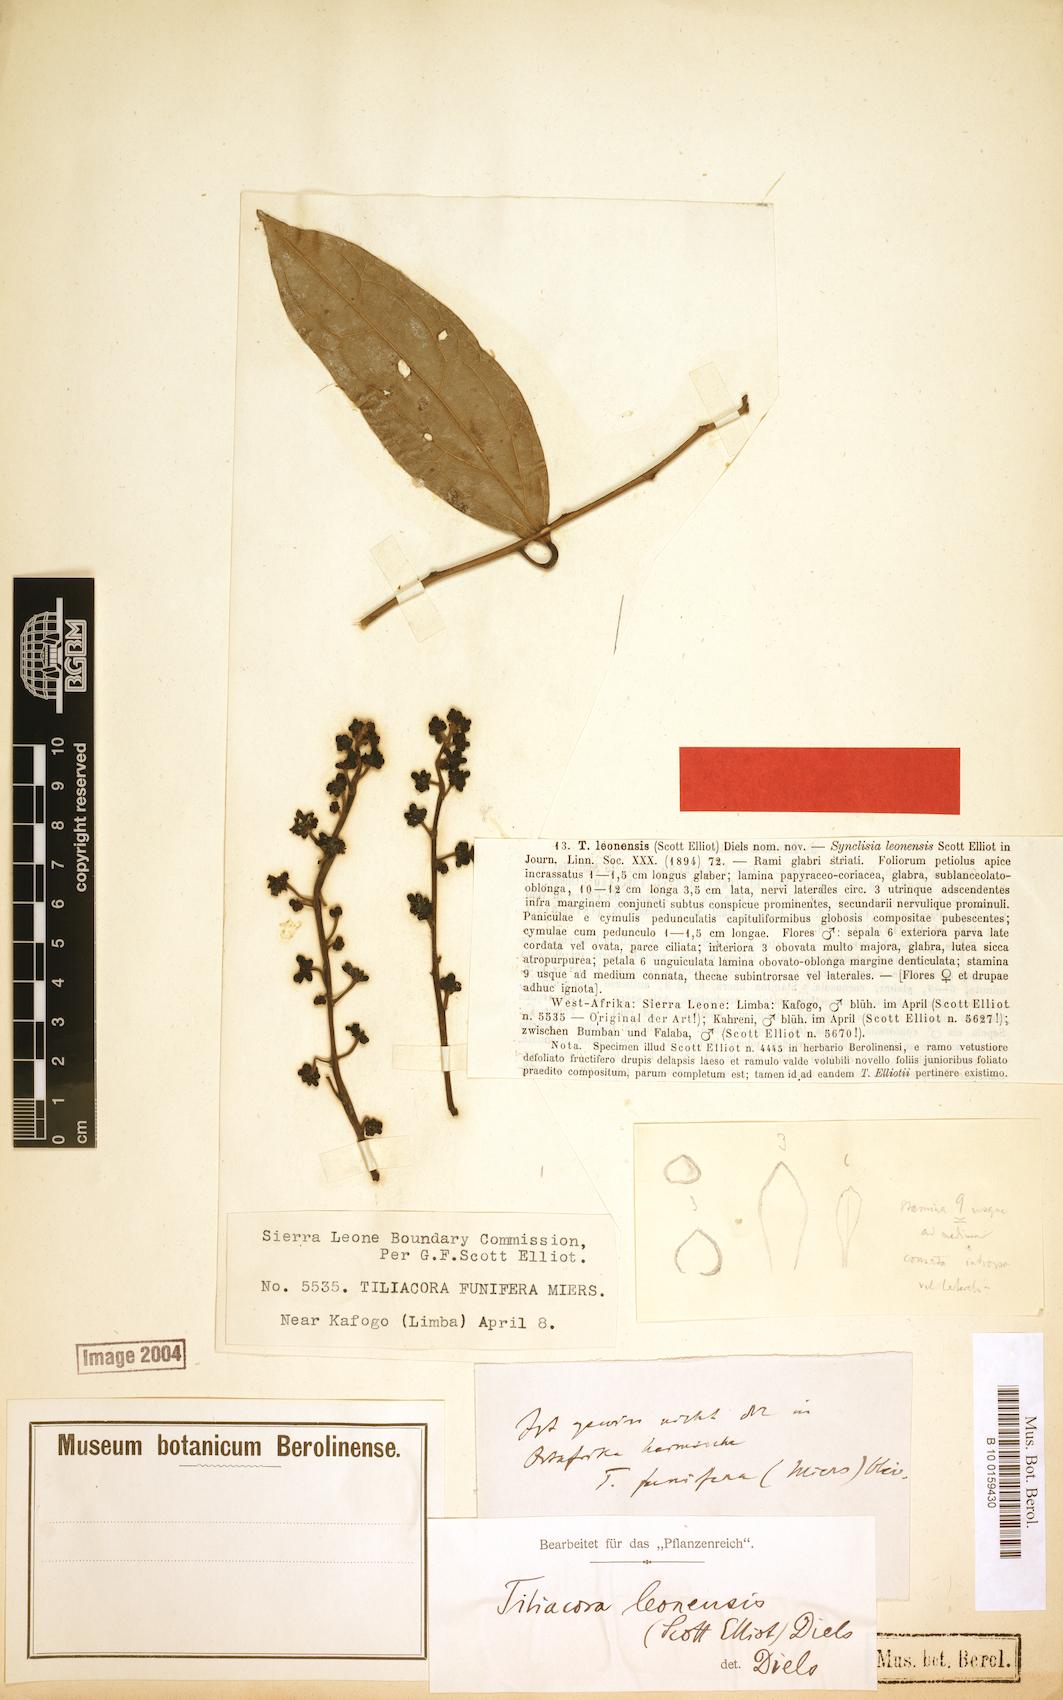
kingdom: Plantae
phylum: Tracheophyta
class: Magnoliopsida
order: Ranunculales
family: Menispermaceae
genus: Tiliacora
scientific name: Tiliacora funifera
